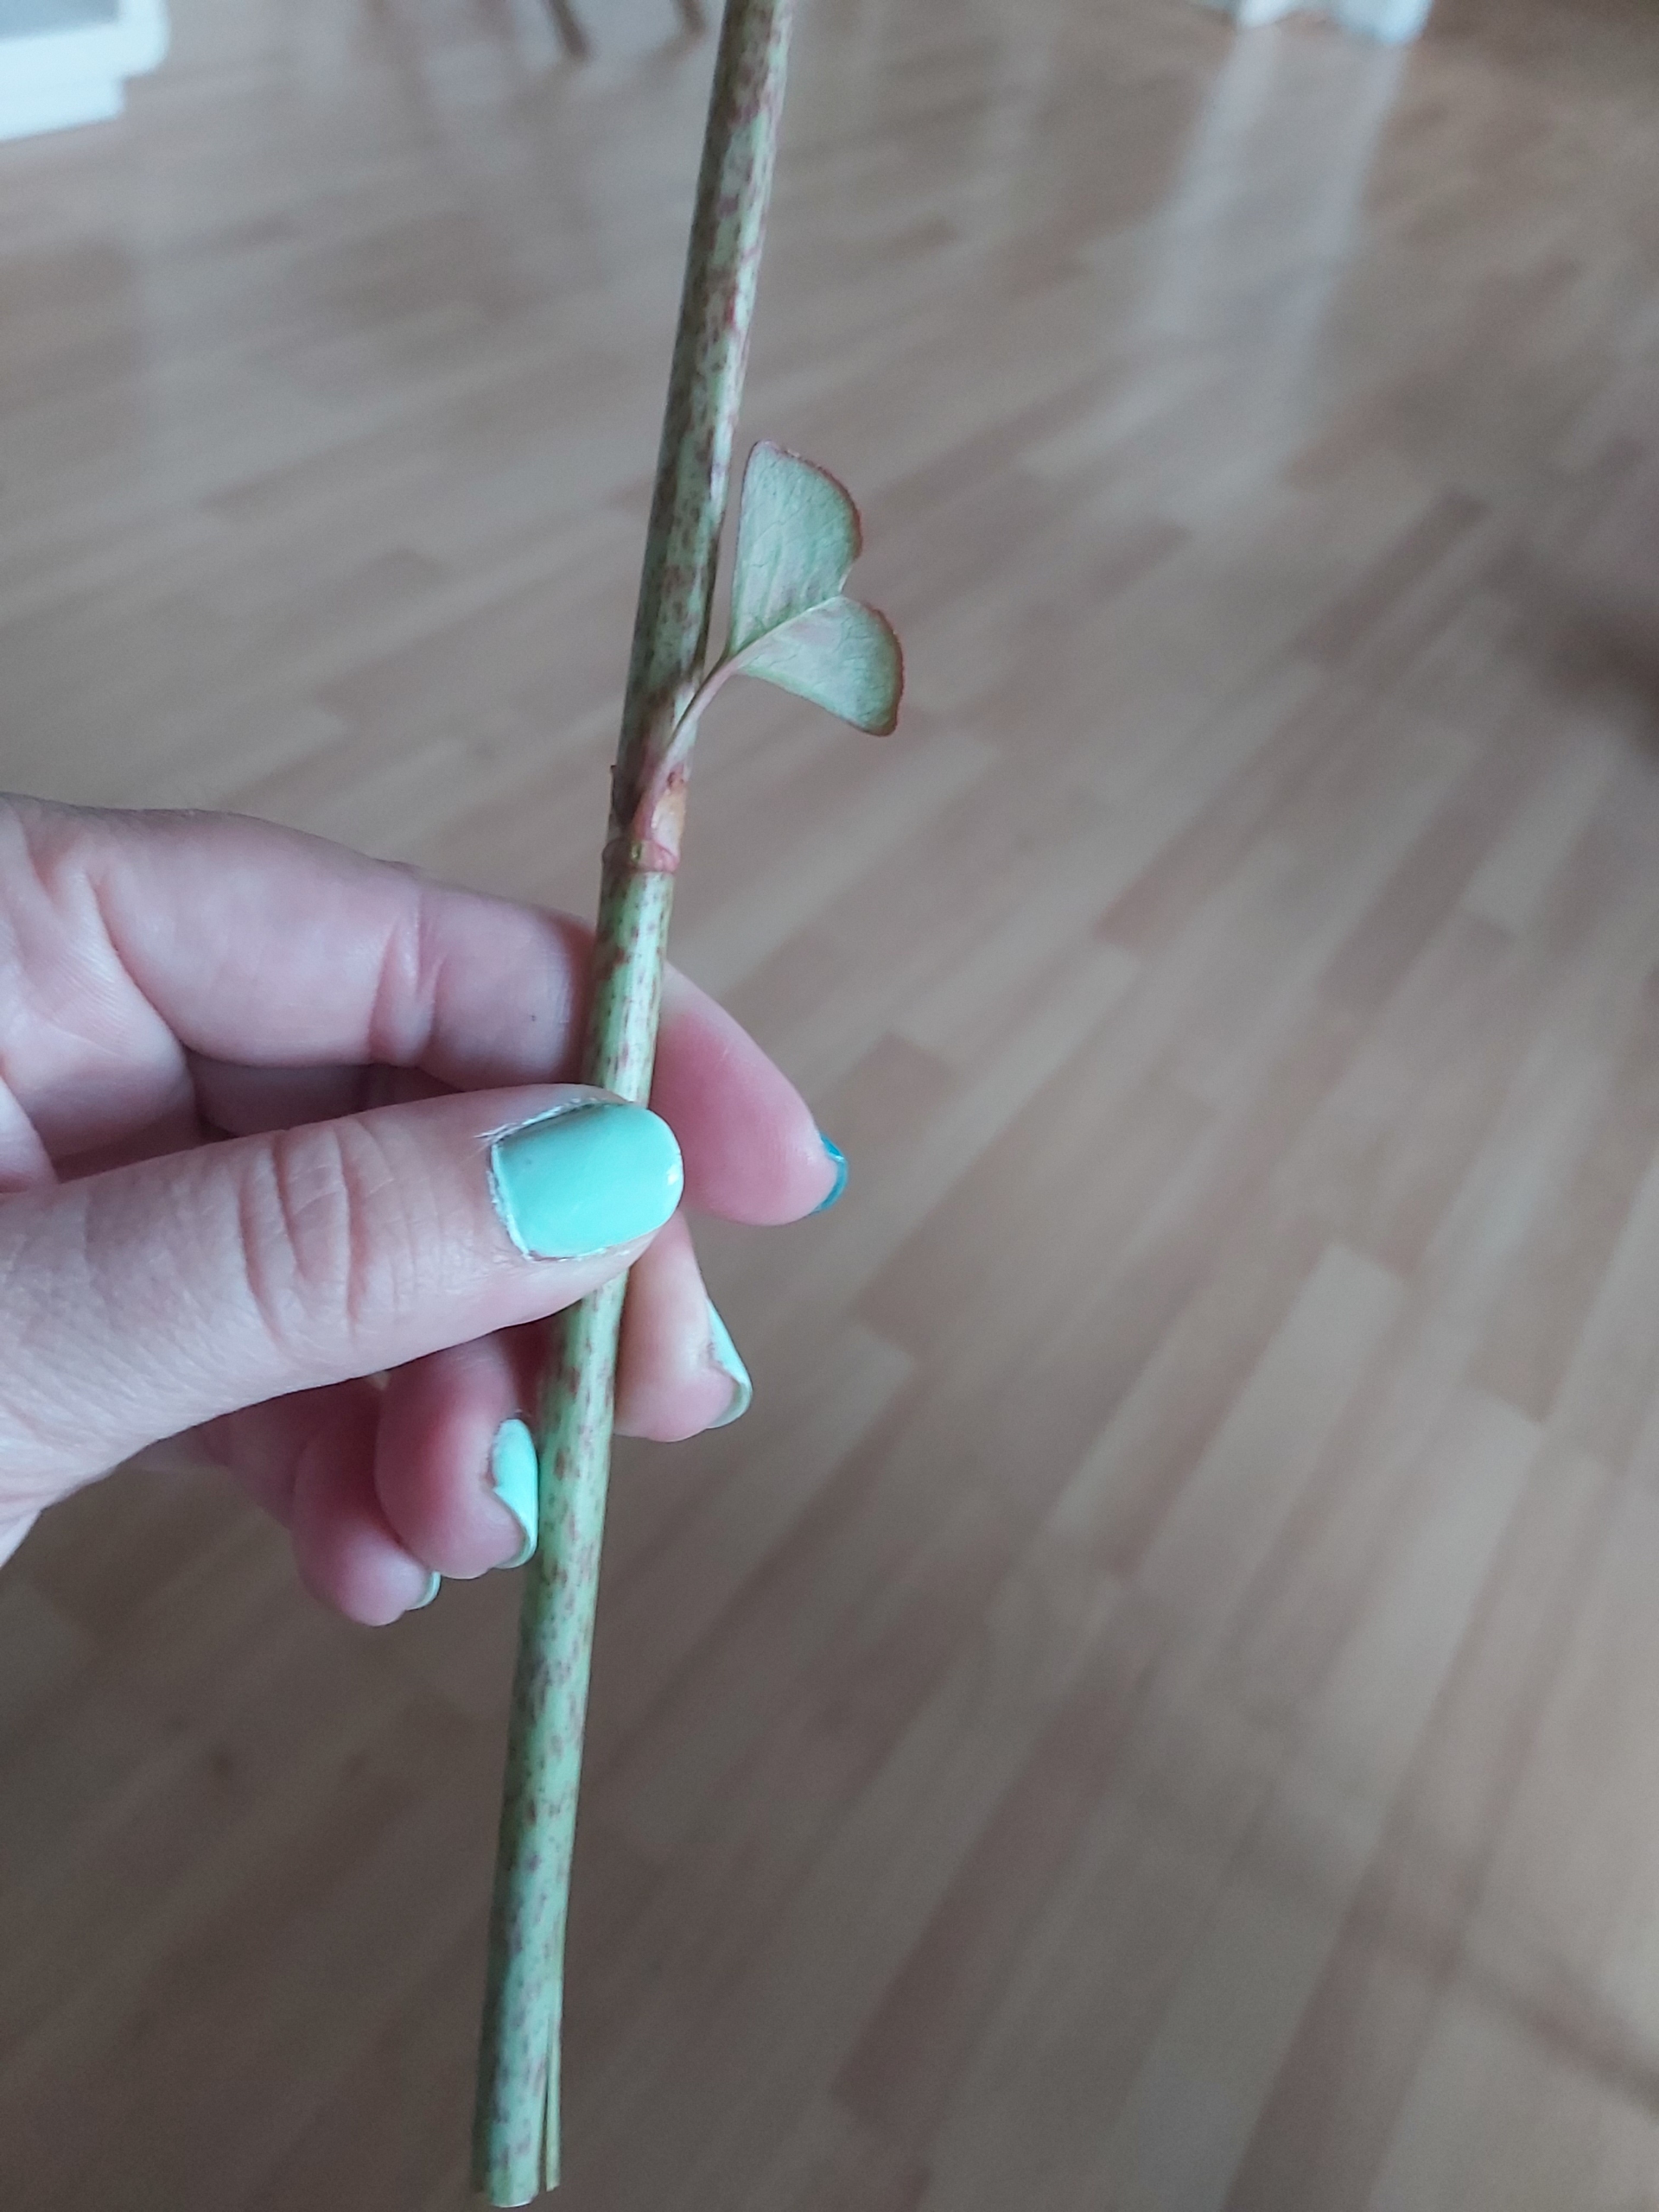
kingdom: Plantae
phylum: Tracheophyta
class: Magnoliopsida
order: Caryophyllales
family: Polygonaceae
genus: Reynoutria
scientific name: Reynoutria japonica
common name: Japan-pileurt
